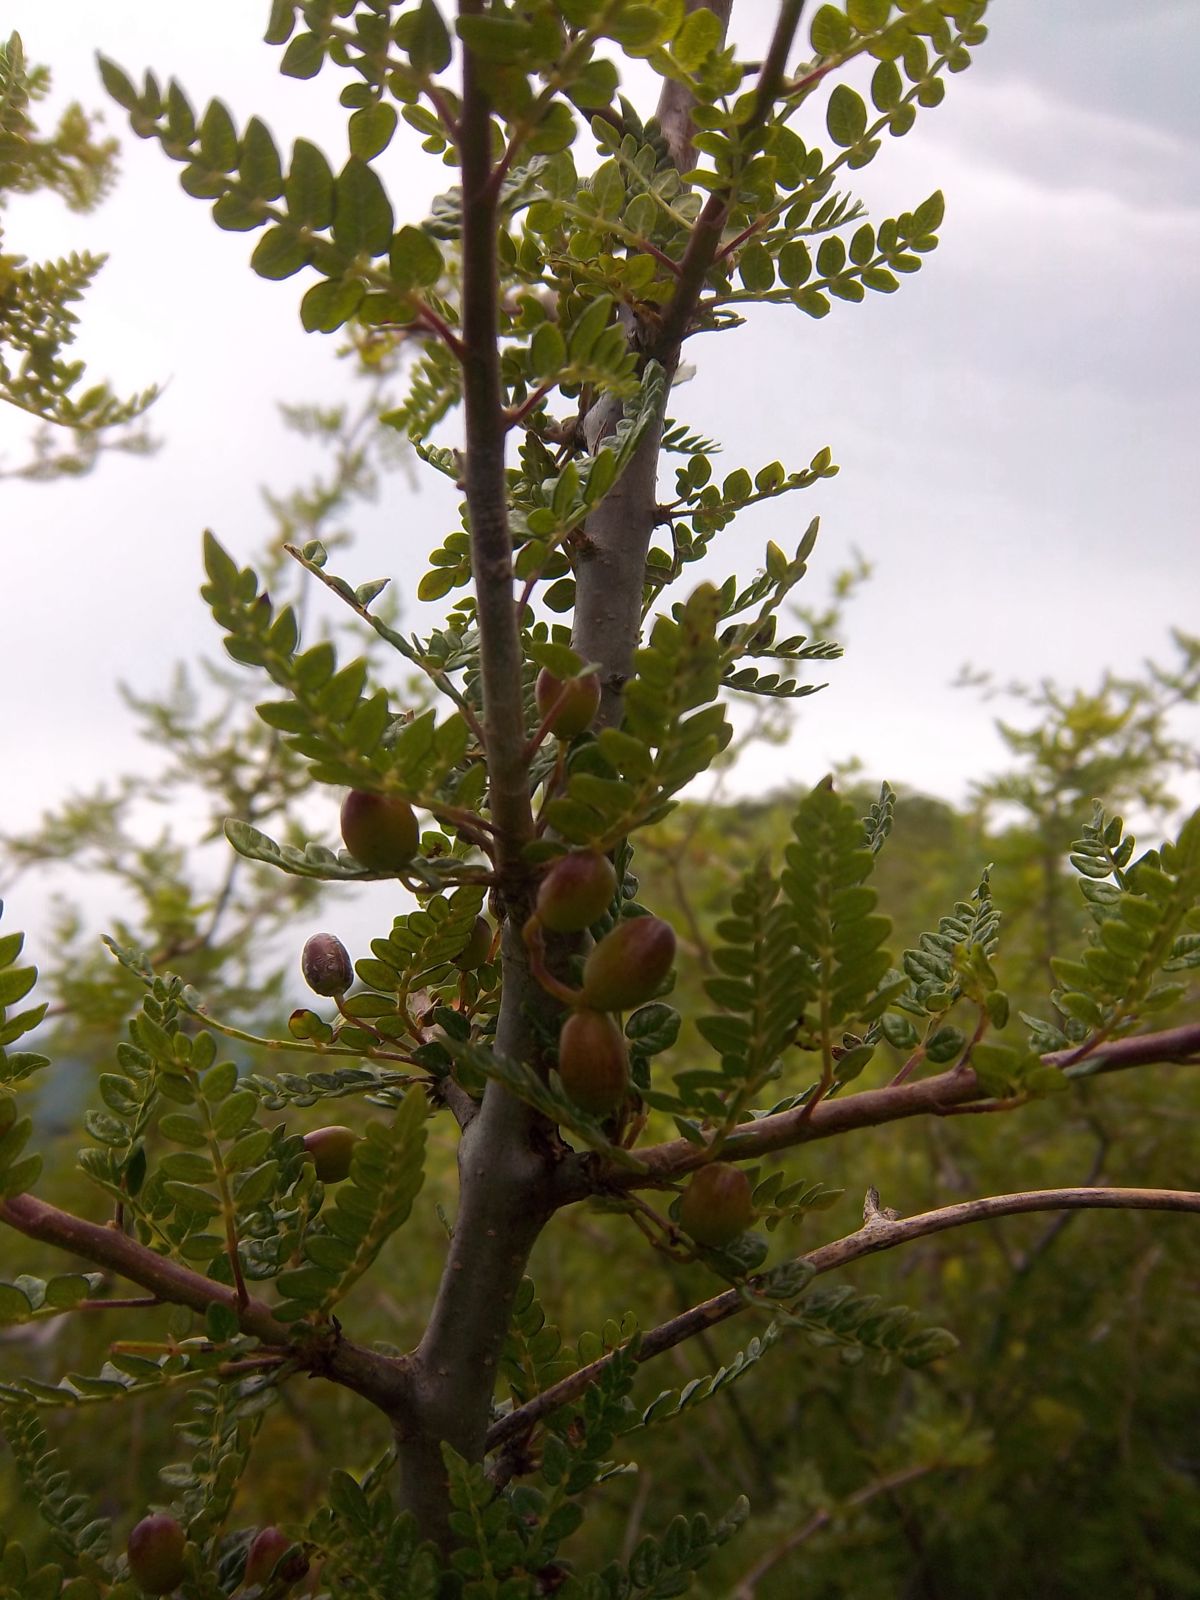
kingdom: Plantae
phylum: Tracheophyta
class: Magnoliopsida
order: Sapindales
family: Burseraceae
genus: Bursera
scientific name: Bursera bipinnata
